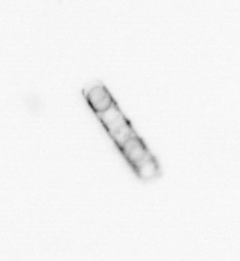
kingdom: Chromista
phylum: Ochrophyta
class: Bacillariophyceae
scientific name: Bacillariophyceae
